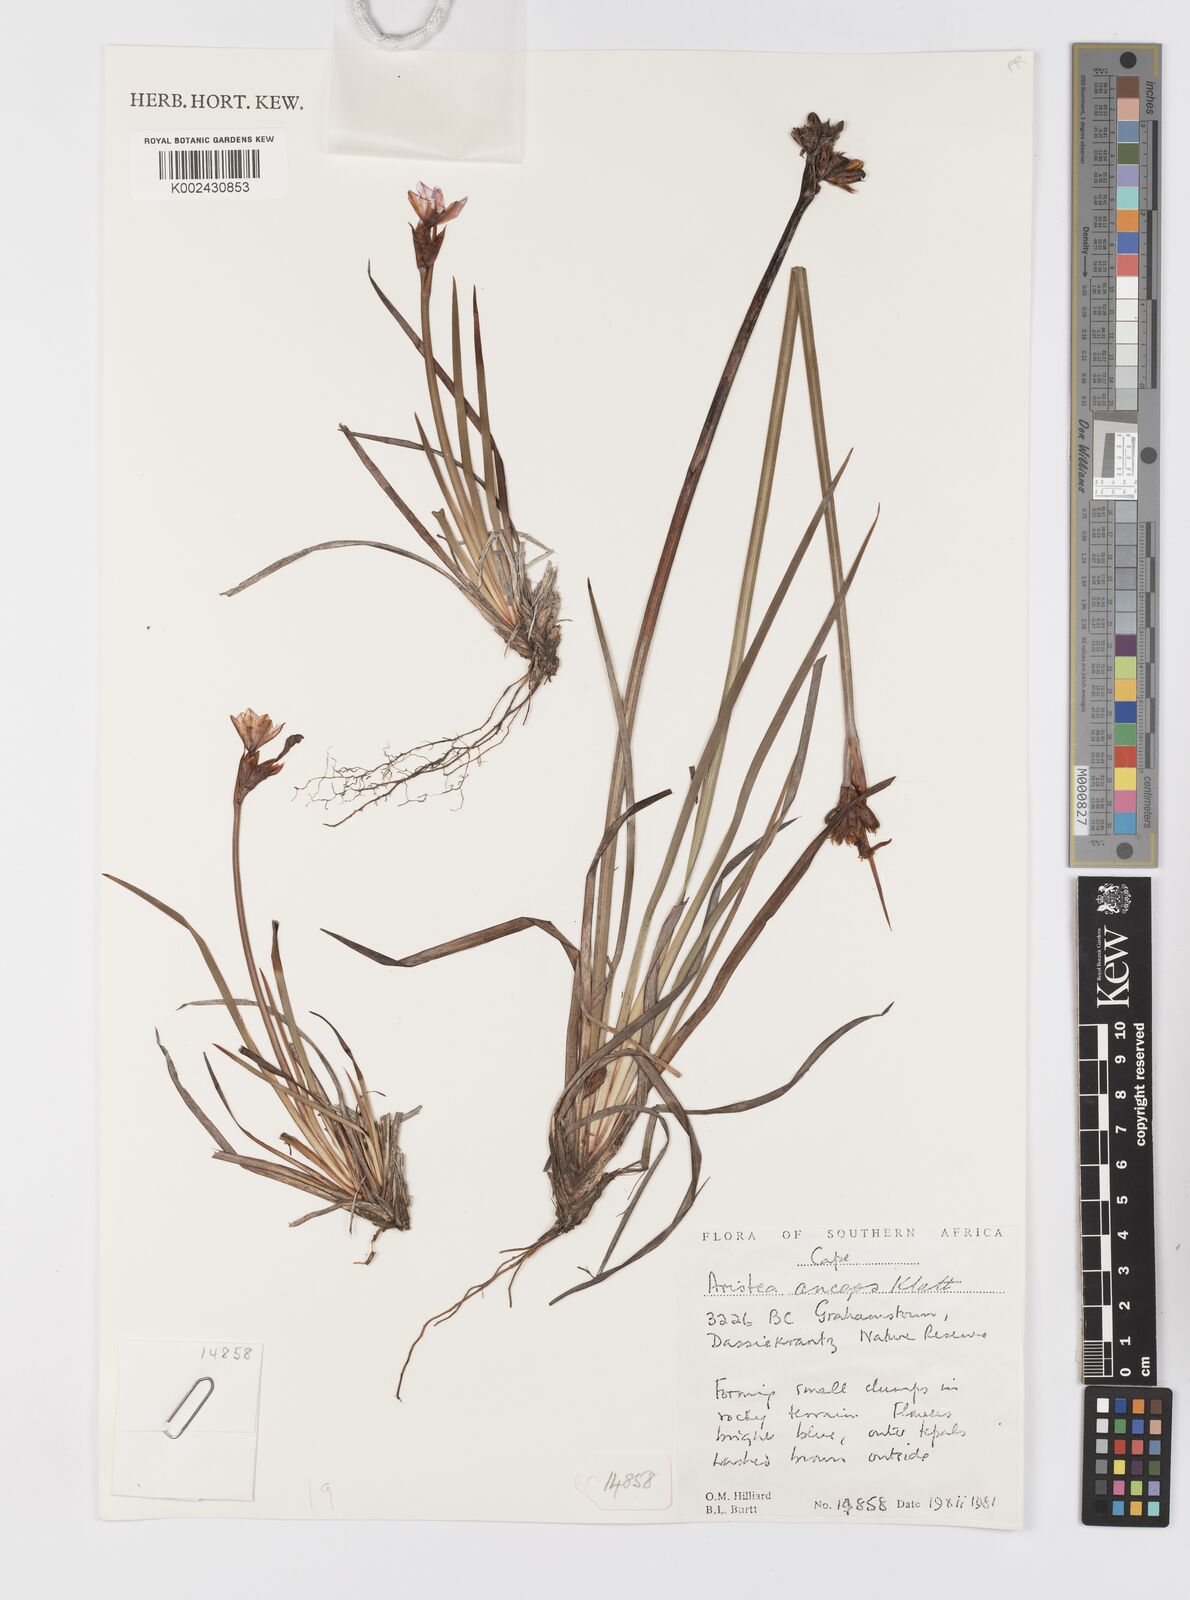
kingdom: Plantae
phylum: Tracheophyta
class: Liliopsida
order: Asparagales
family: Iridaceae
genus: Aristea
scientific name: Aristea anceps
